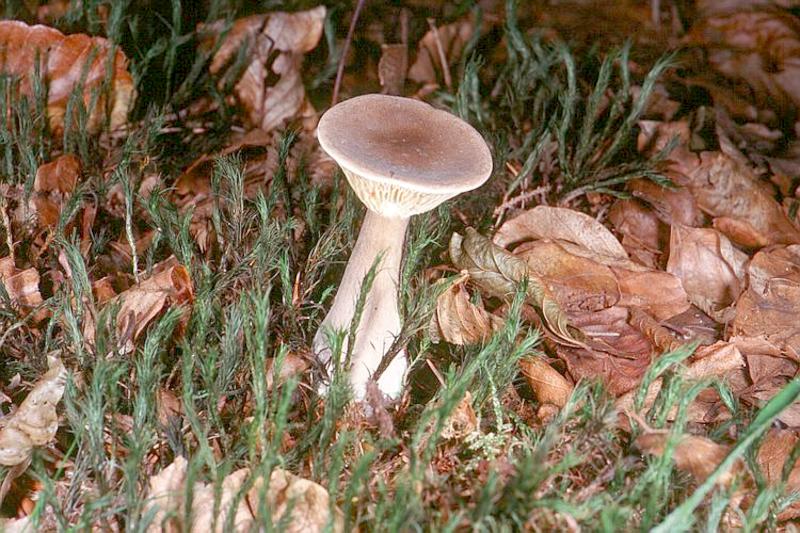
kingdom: Fungi
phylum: Basidiomycota
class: Agaricomycetes
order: Agaricales
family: Hygrophoraceae
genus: Ampulloclitocybe
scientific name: Ampulloclitocybe clavipes
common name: Club foot
